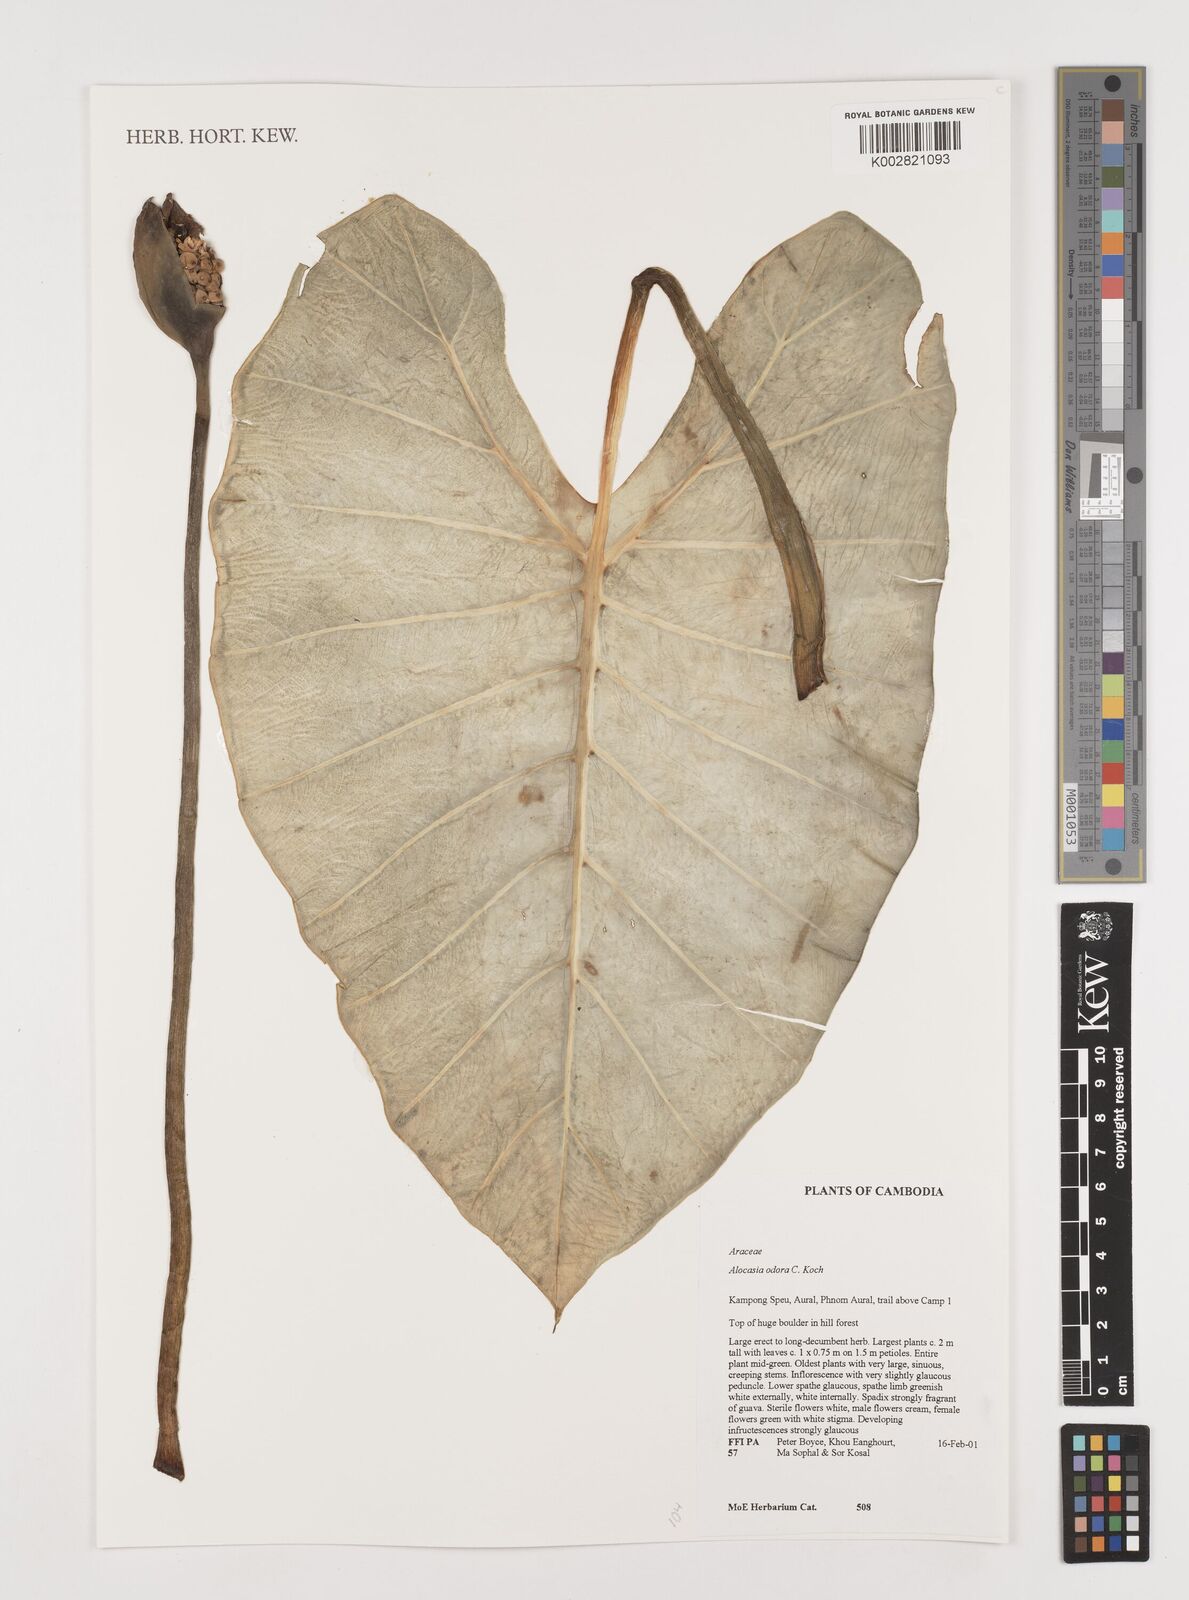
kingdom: Plantae
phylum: Tracheophyta
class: Liliopsida
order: Alismatales
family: Araceae
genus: Alocasia
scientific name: Alocasia odora
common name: Asian taro
